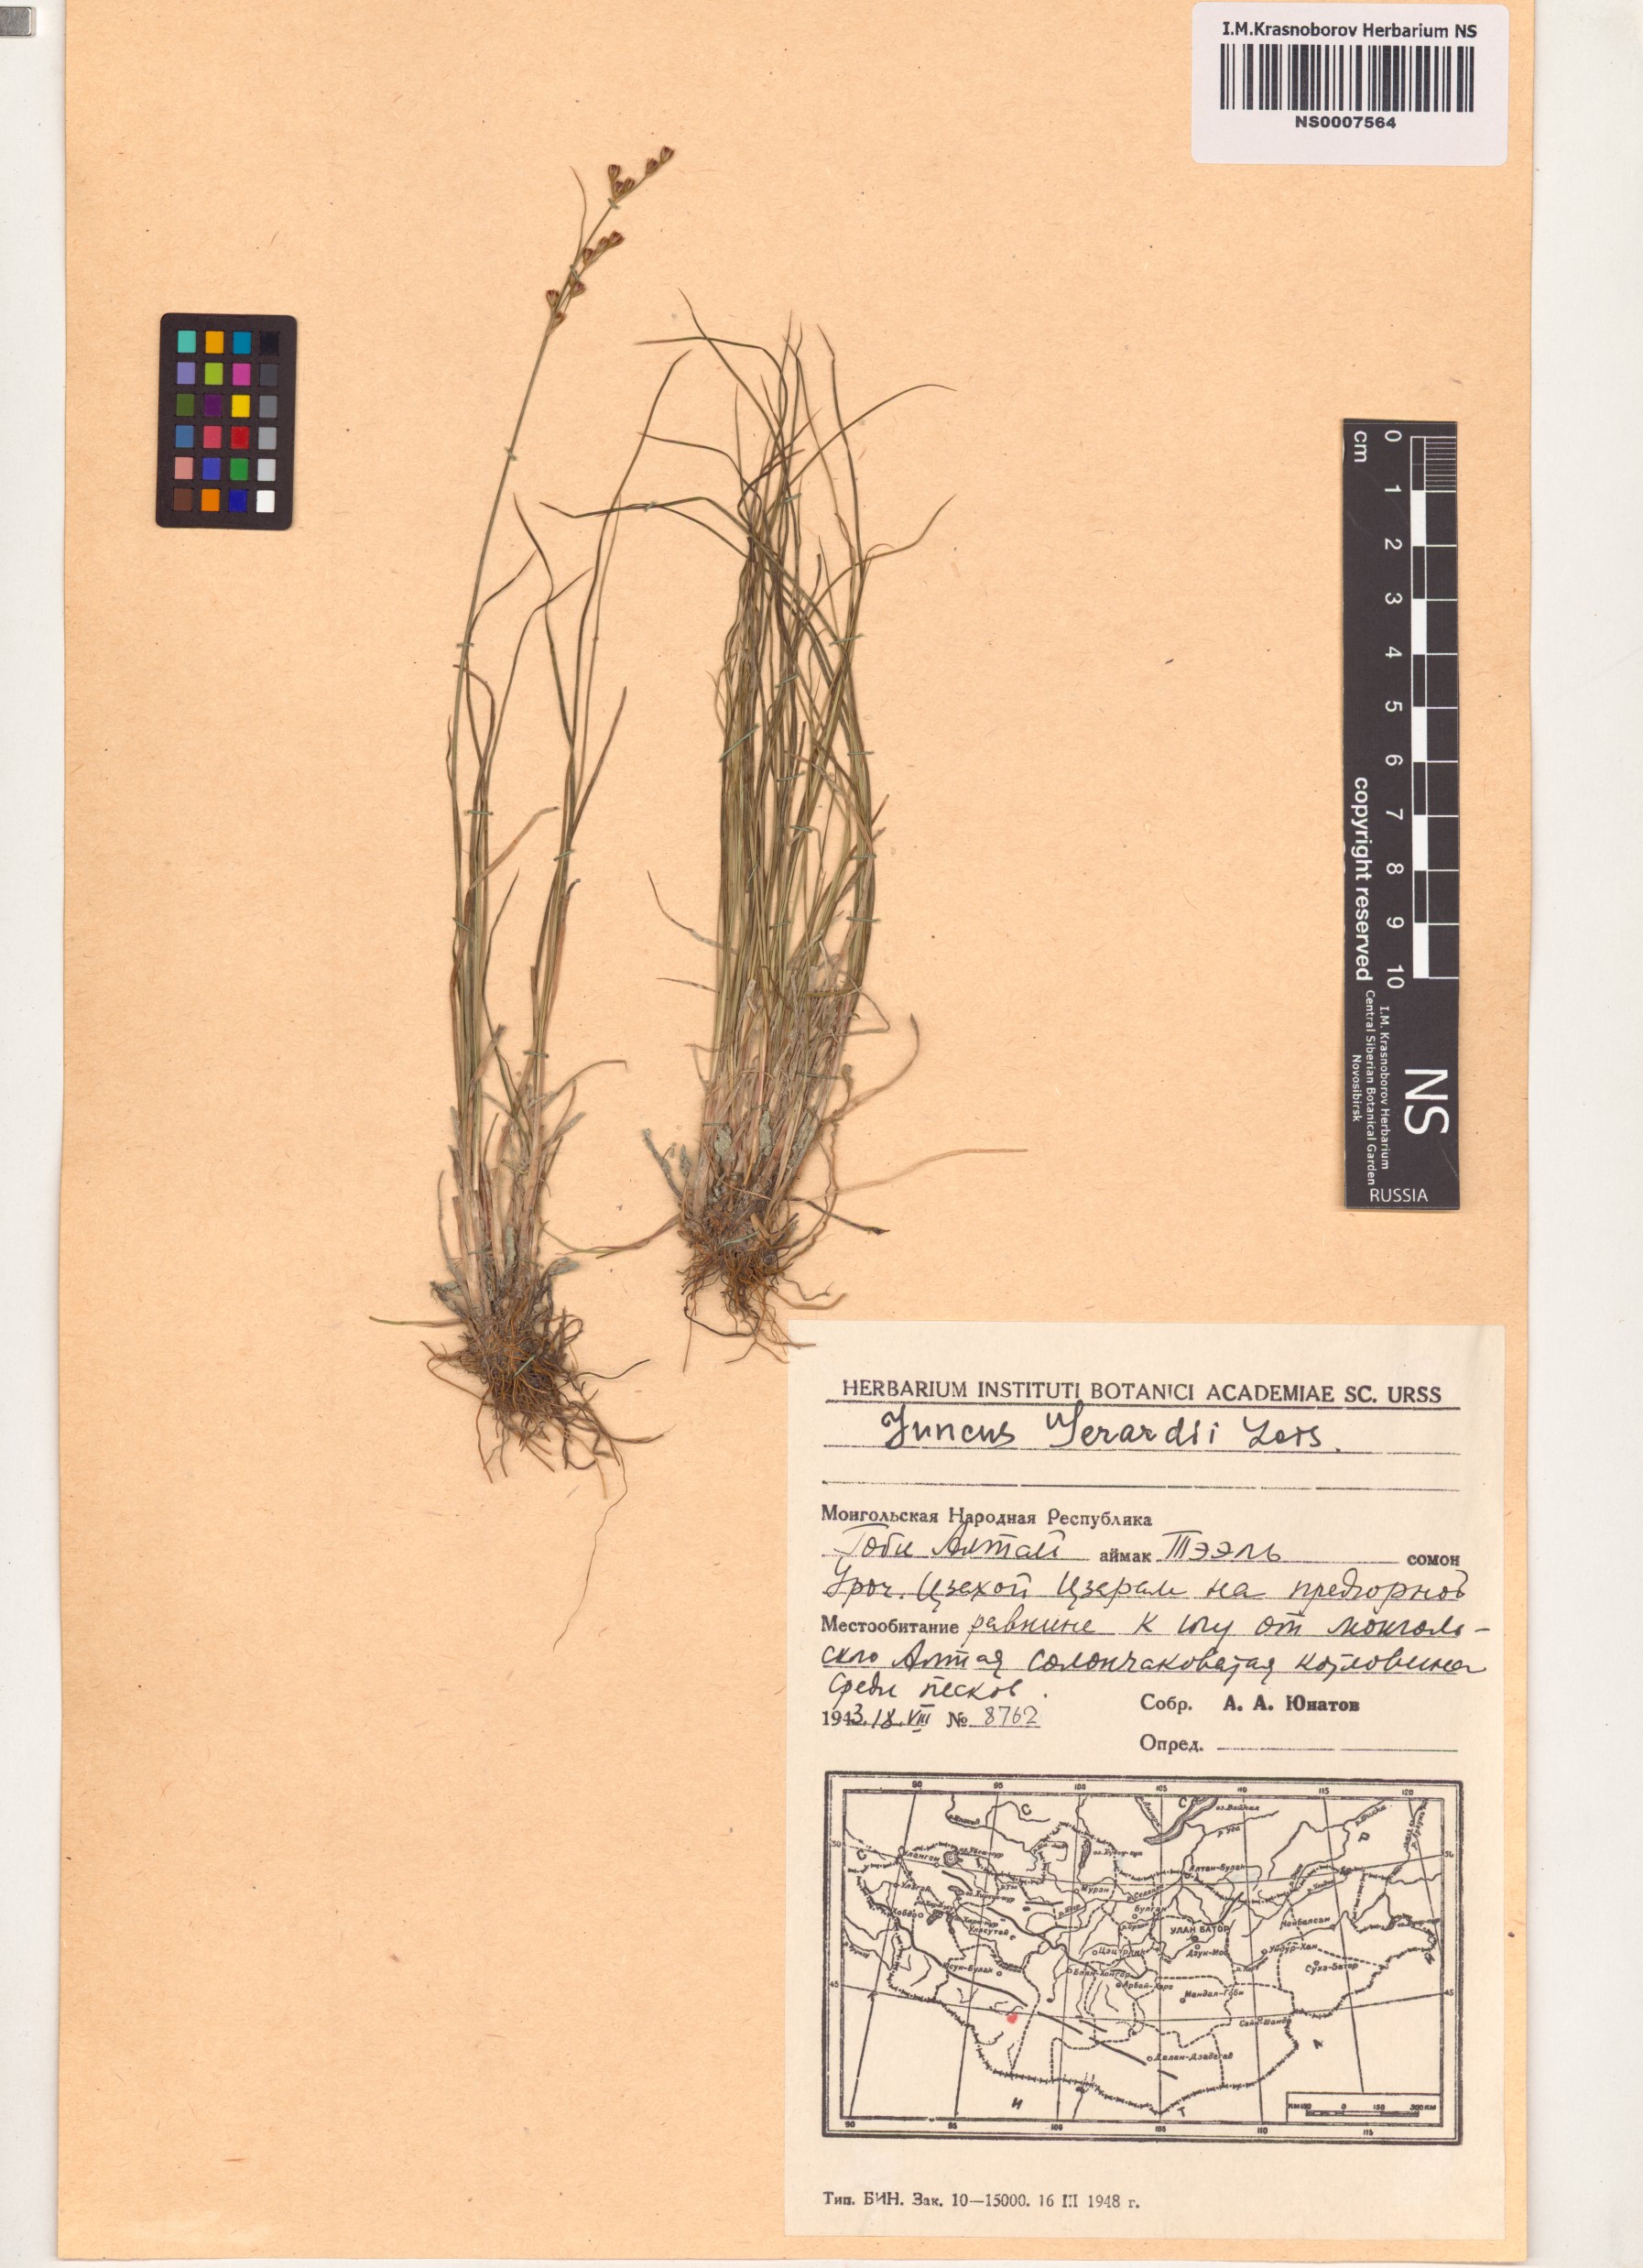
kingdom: Plantae
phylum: Tracheophyta
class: Liliopsida
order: Poales
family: Juncaceae
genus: Juncus
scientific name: Juncus gerardi
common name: Saltmarsh rush
